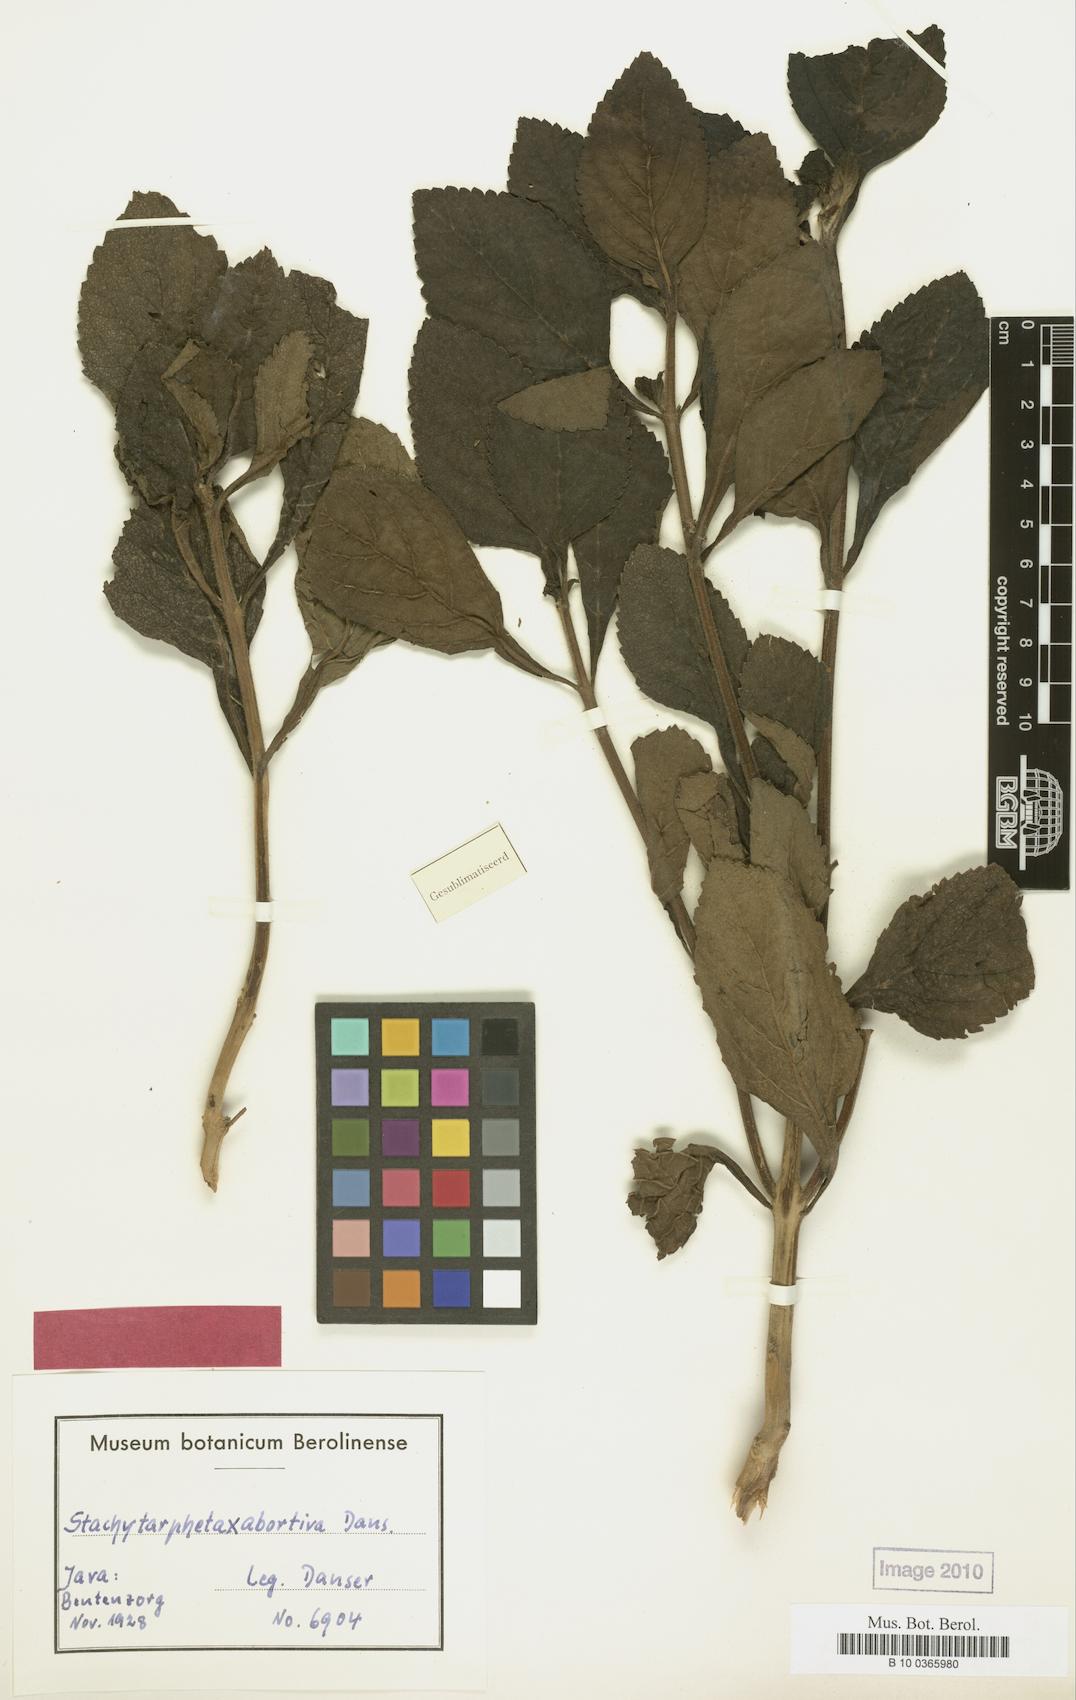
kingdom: Plantae
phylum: Tracheophyta
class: Magnoliopsida
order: Lamiales
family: Verbenaceae
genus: Stachytarpheta
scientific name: Stachytarpheta abortiva
